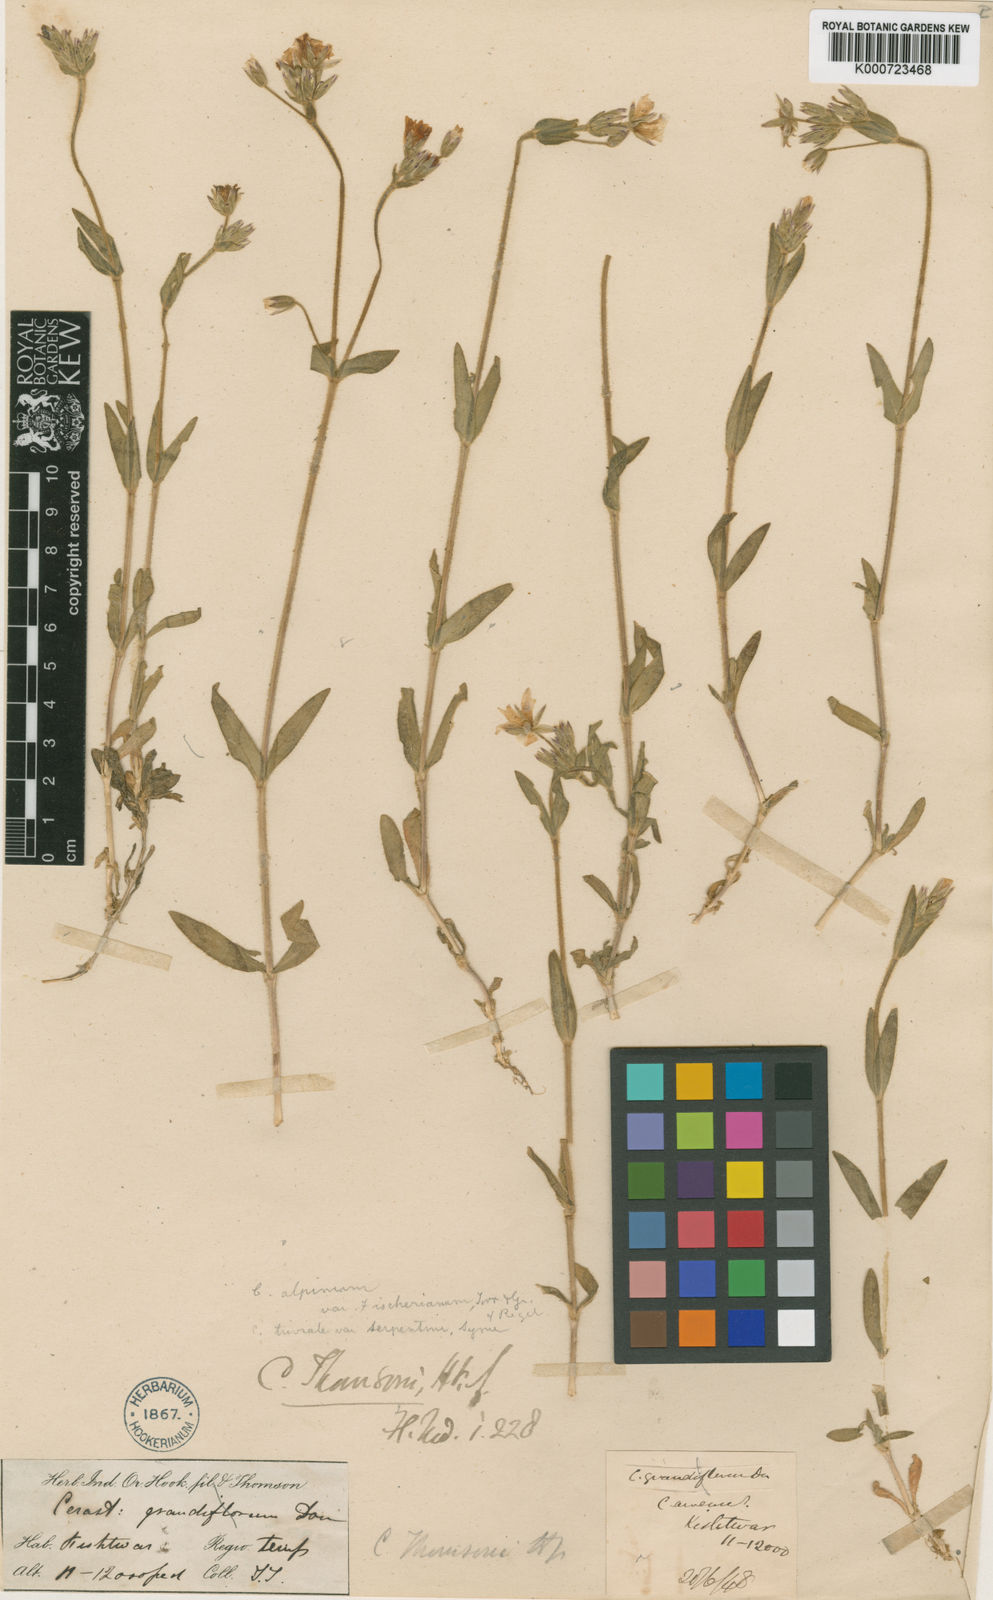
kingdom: Plantae
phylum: Tracheophyta
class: Magnoliopsida
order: Caryophyllales
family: Caryophyllaceae
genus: Cerastium
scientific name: Cerastium thomsonii
